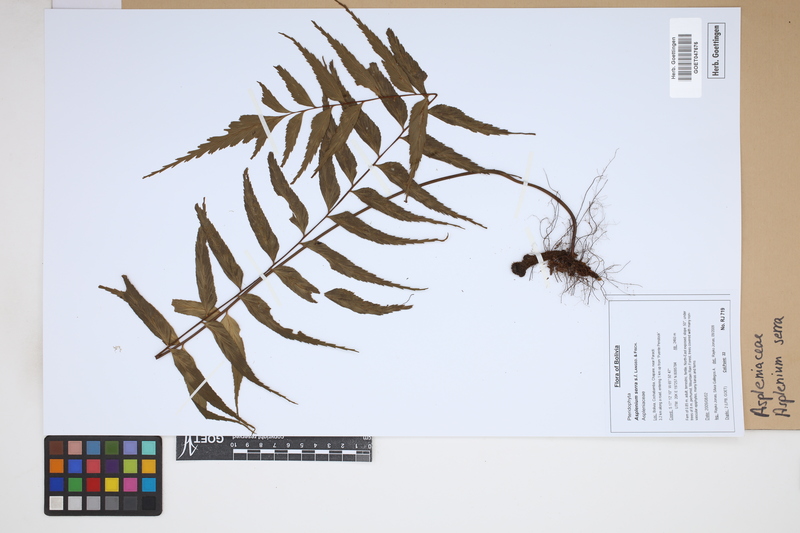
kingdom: Plantae
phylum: Tracheophyta
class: Polypodiopsida
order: Polypodiales
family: Aspleniaceae
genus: Asplenium
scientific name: Asplenium serra
